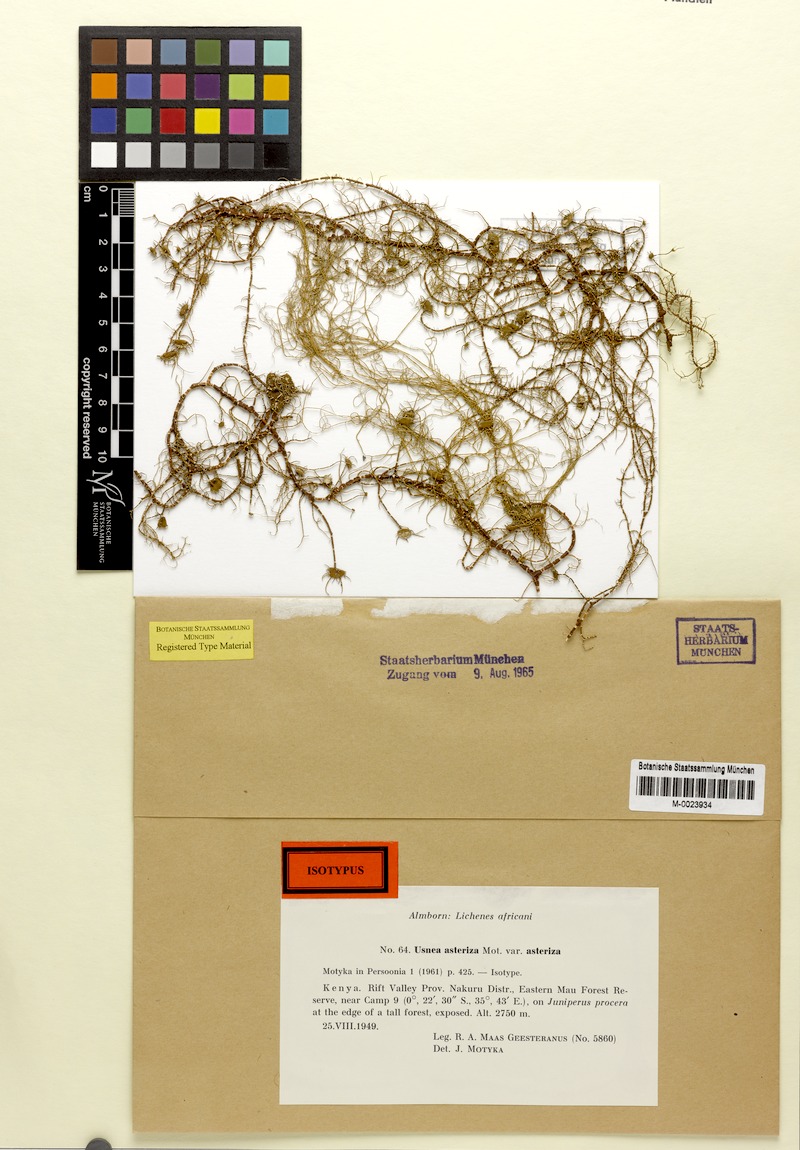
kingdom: Fungi
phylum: Ascomycota
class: Lecanoromycetes
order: Lecanorales
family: Parmeliaceae
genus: Usnea
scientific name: Usnea
